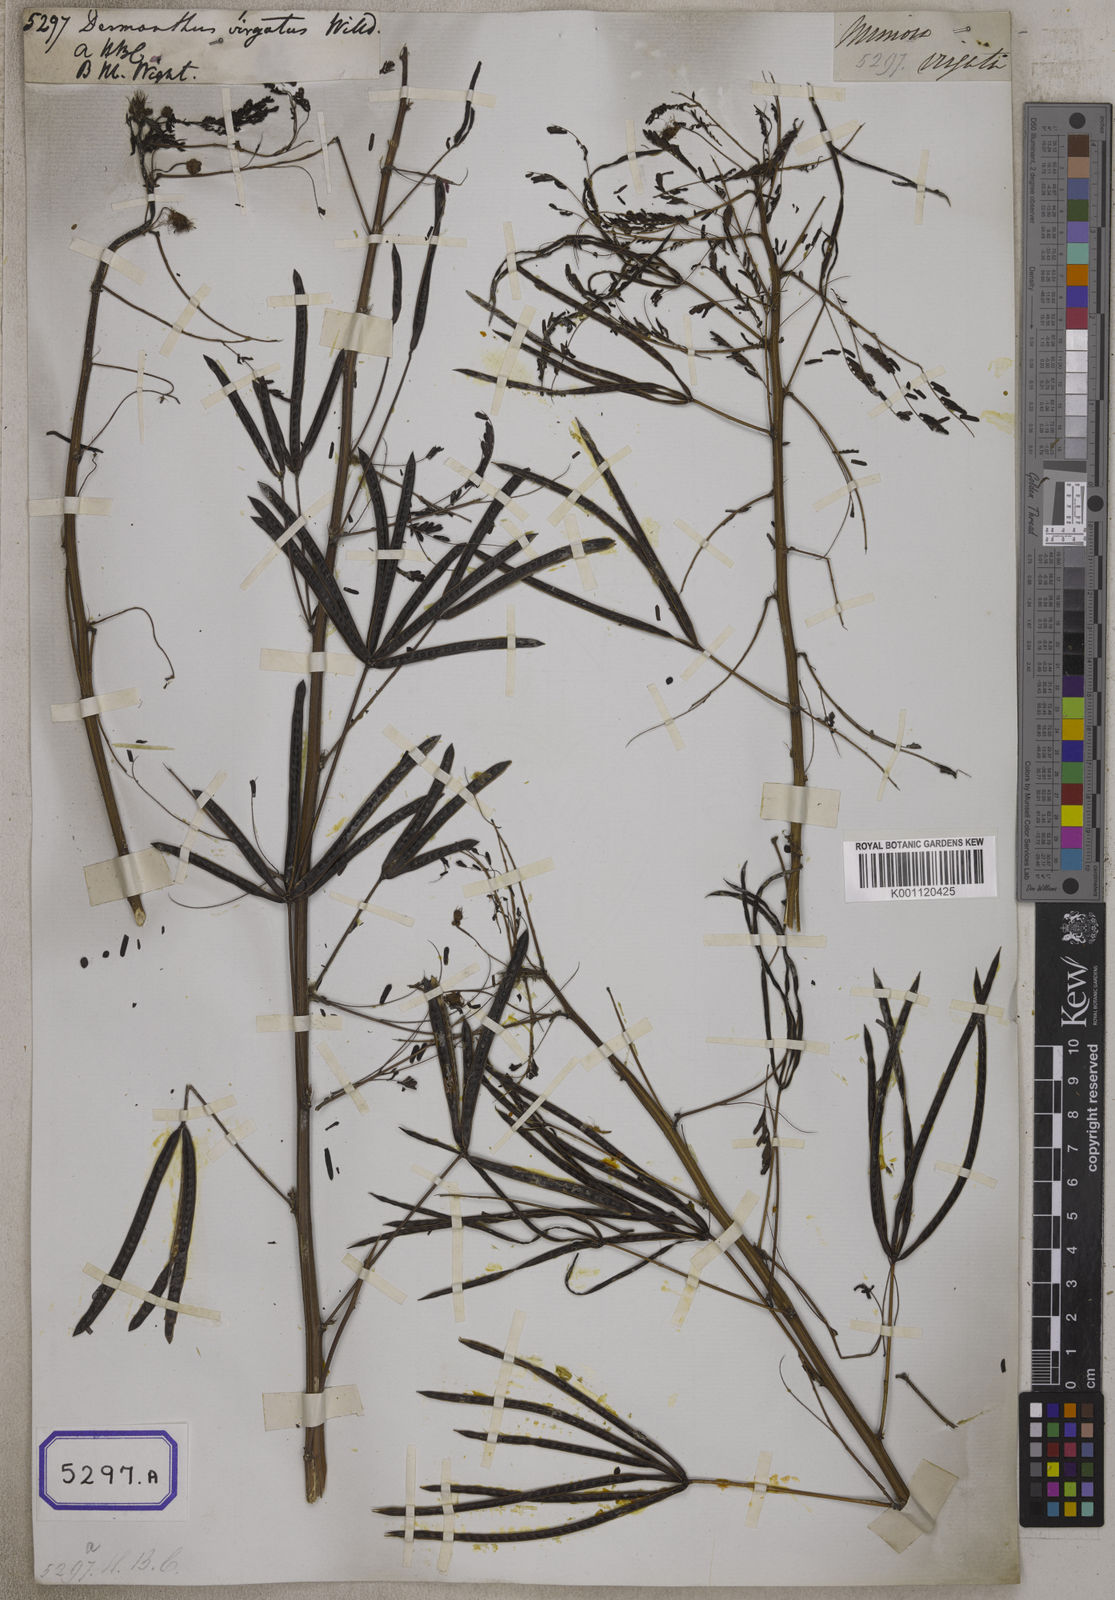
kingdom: Plantae
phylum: Tracheophyta
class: Magnoliopsida
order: Fabales
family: Fabaceae
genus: Desmanthus
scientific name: Desmanthus virgatus
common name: Wild tantan
